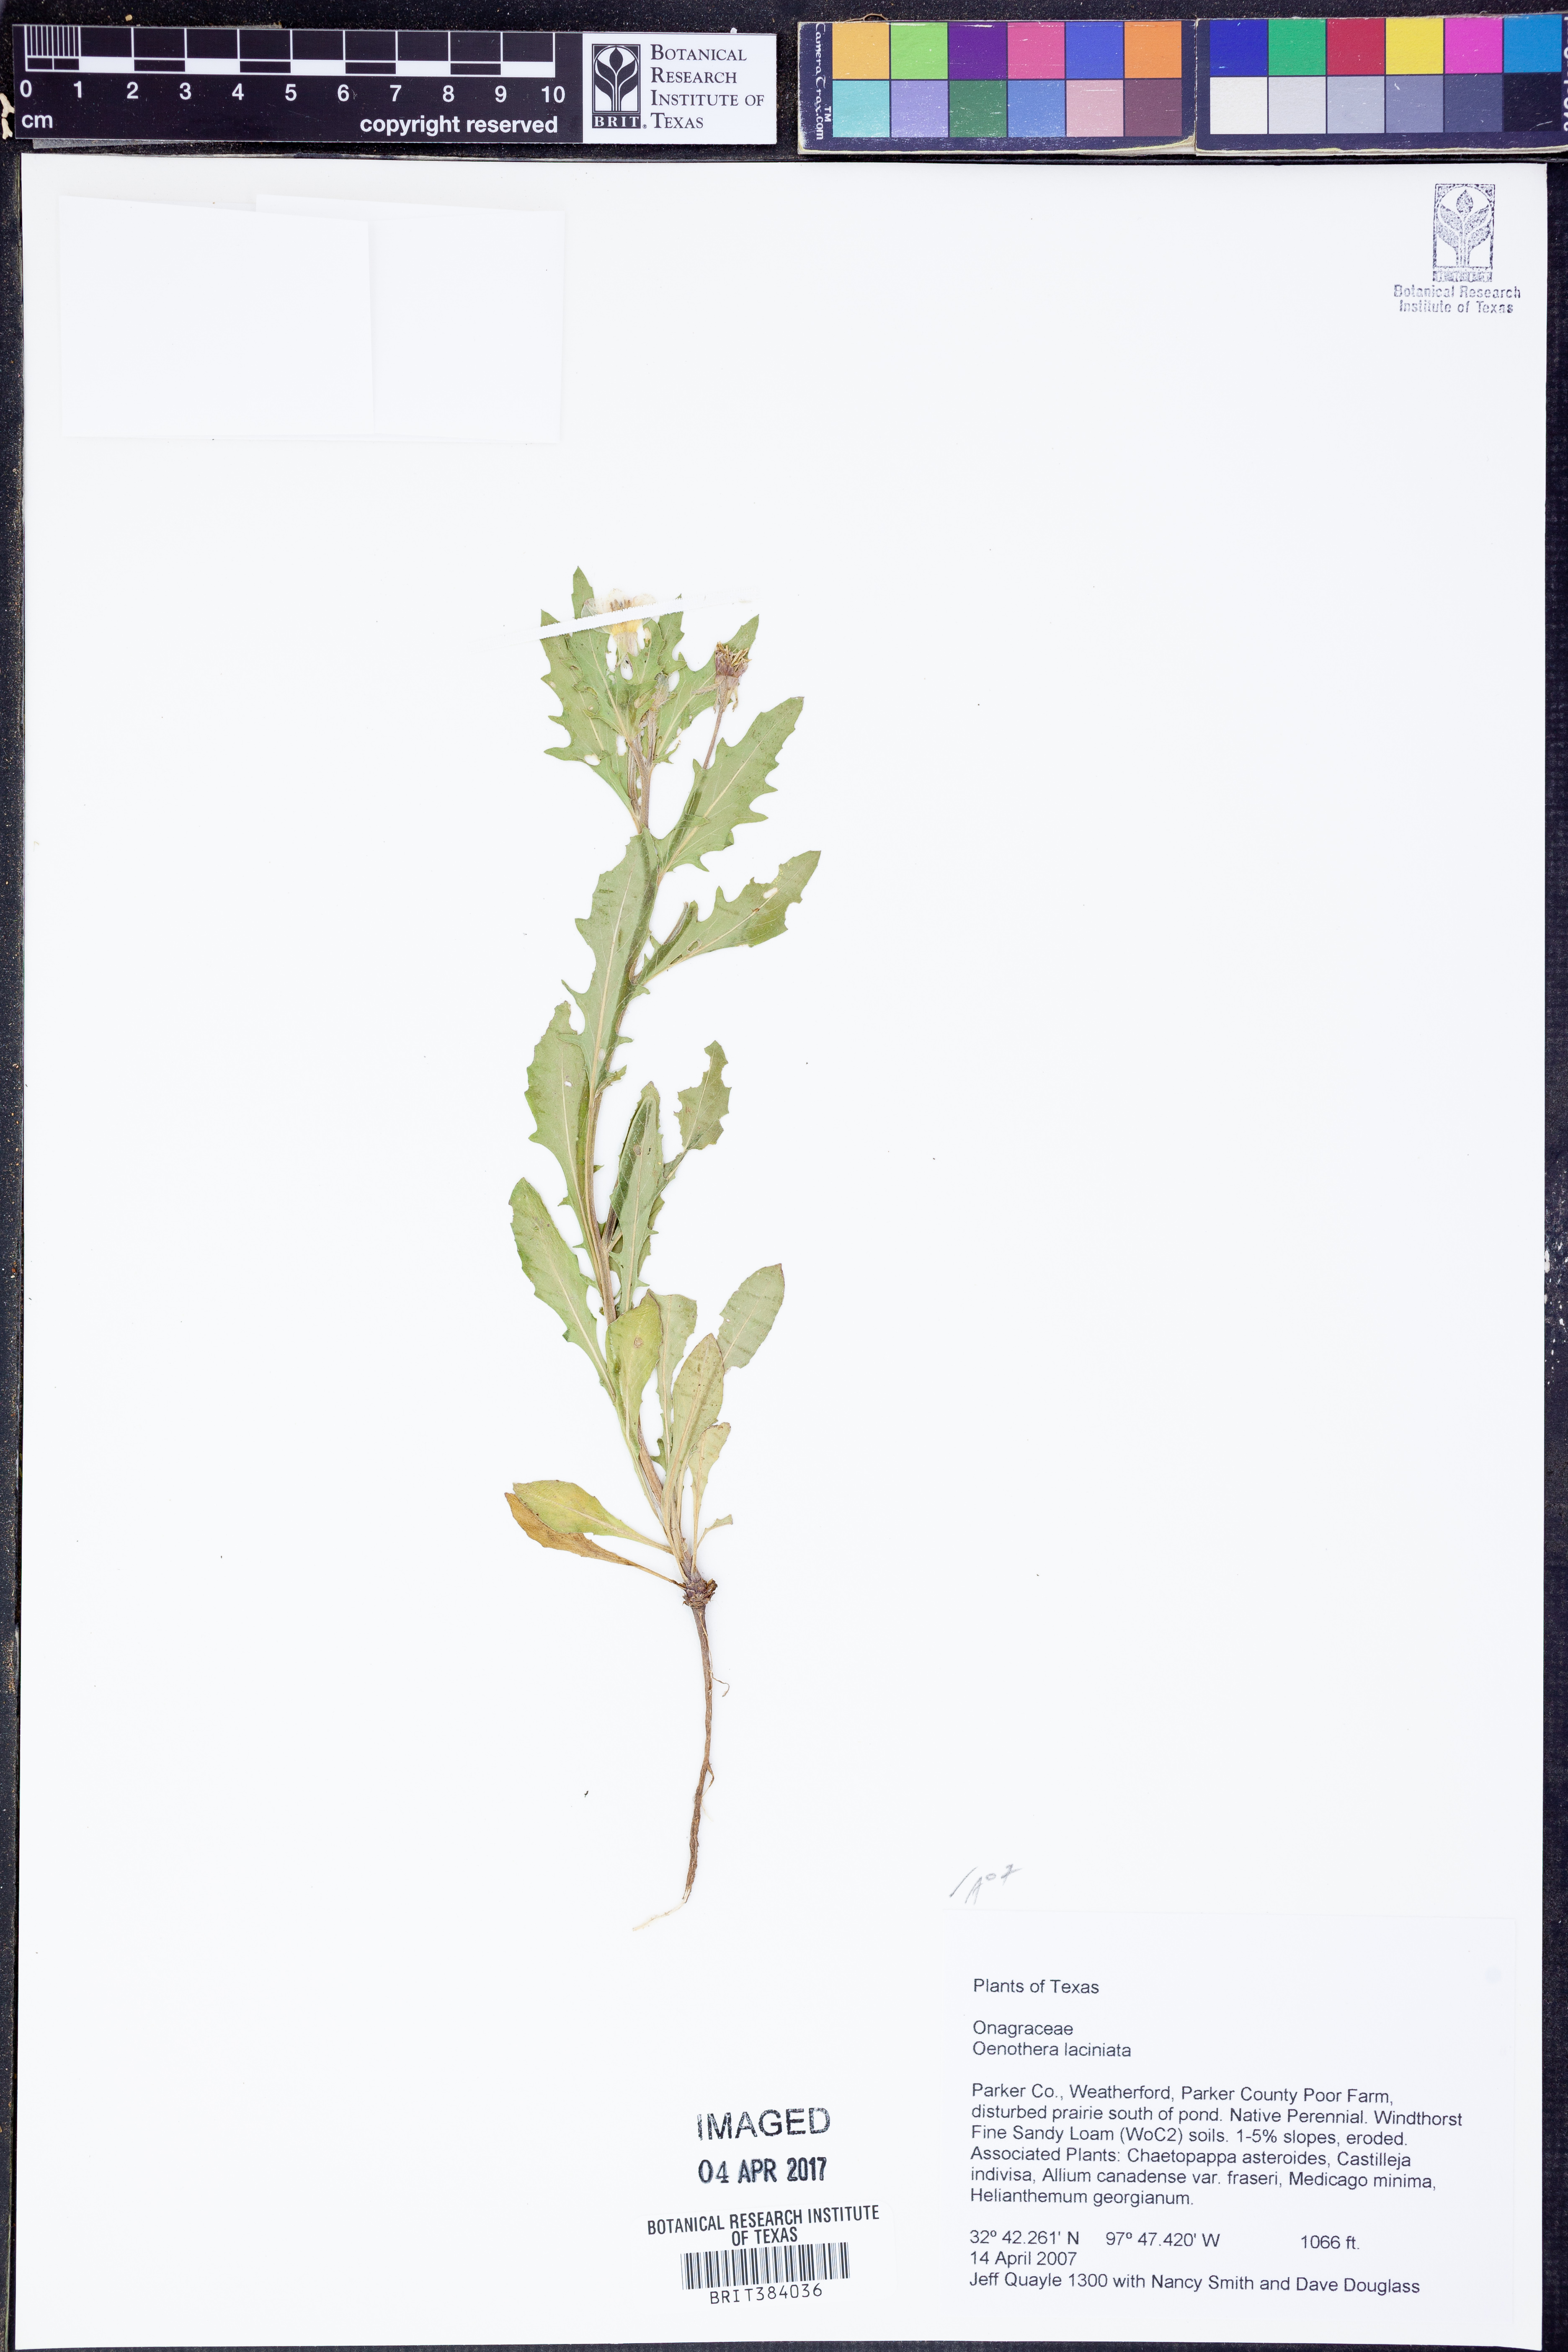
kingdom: Plantae
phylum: Tracheophyta
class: Magnoliopsida
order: Myrtales
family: Onagraceae
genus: Oenothera
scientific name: Oenothera laciniata
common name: Cut-leaved evening-primrose
